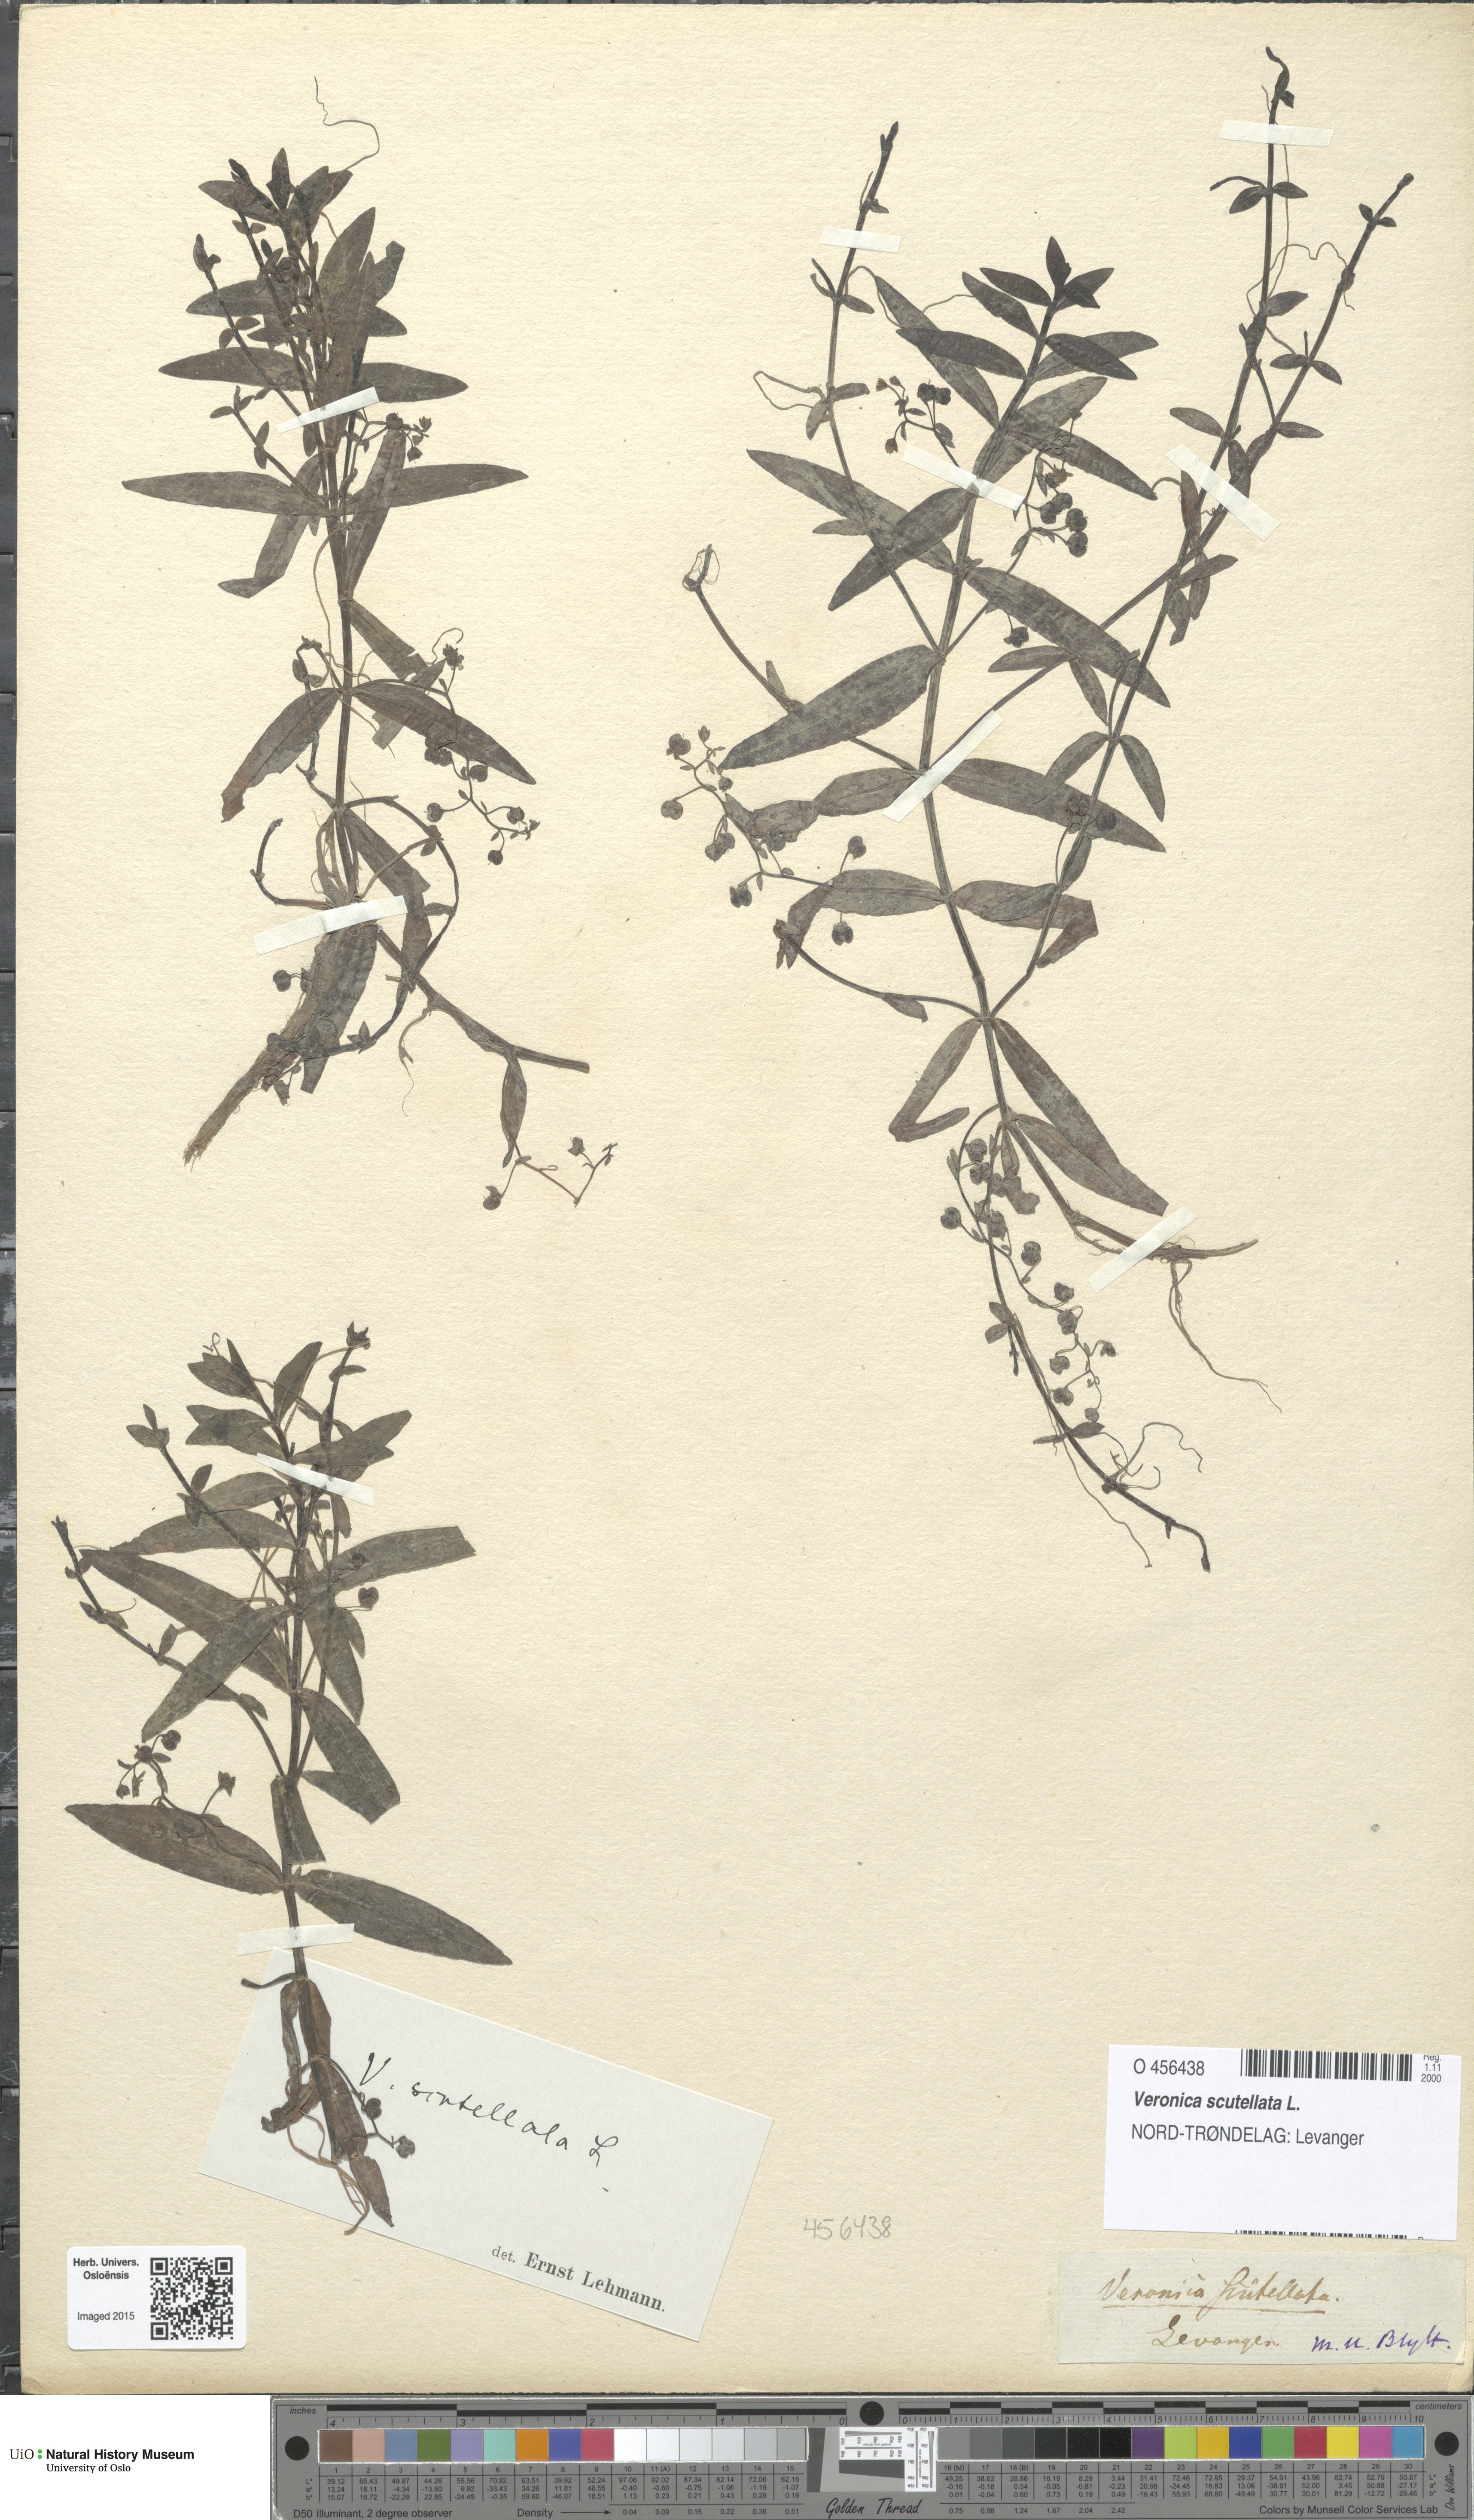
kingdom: Plantae
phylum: Tracheophyta
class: Magnoliopsida
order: Lamiales
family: Plantaginaceae
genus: Veronica
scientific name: Veronica scutellata
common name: Marsh speedwell
